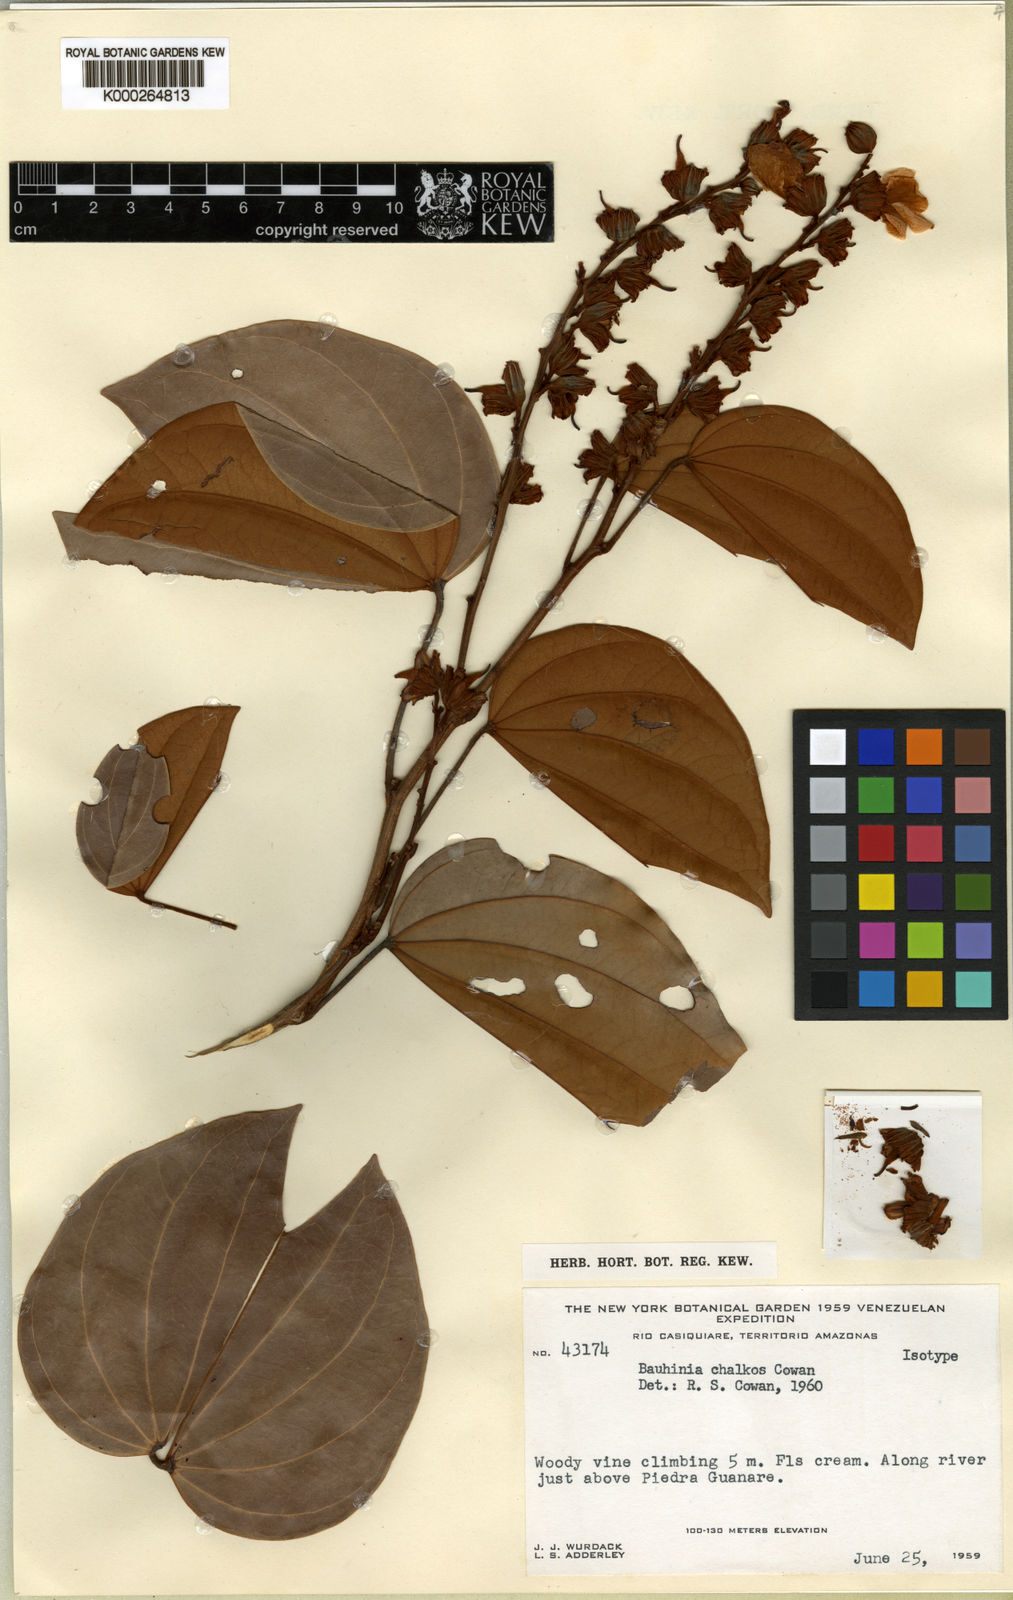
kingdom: Plantae
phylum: Tracheophyta
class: Magnoliopsida
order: Fabales
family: Fabaceae
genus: Schnella
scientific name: Schnella cupreonitens
